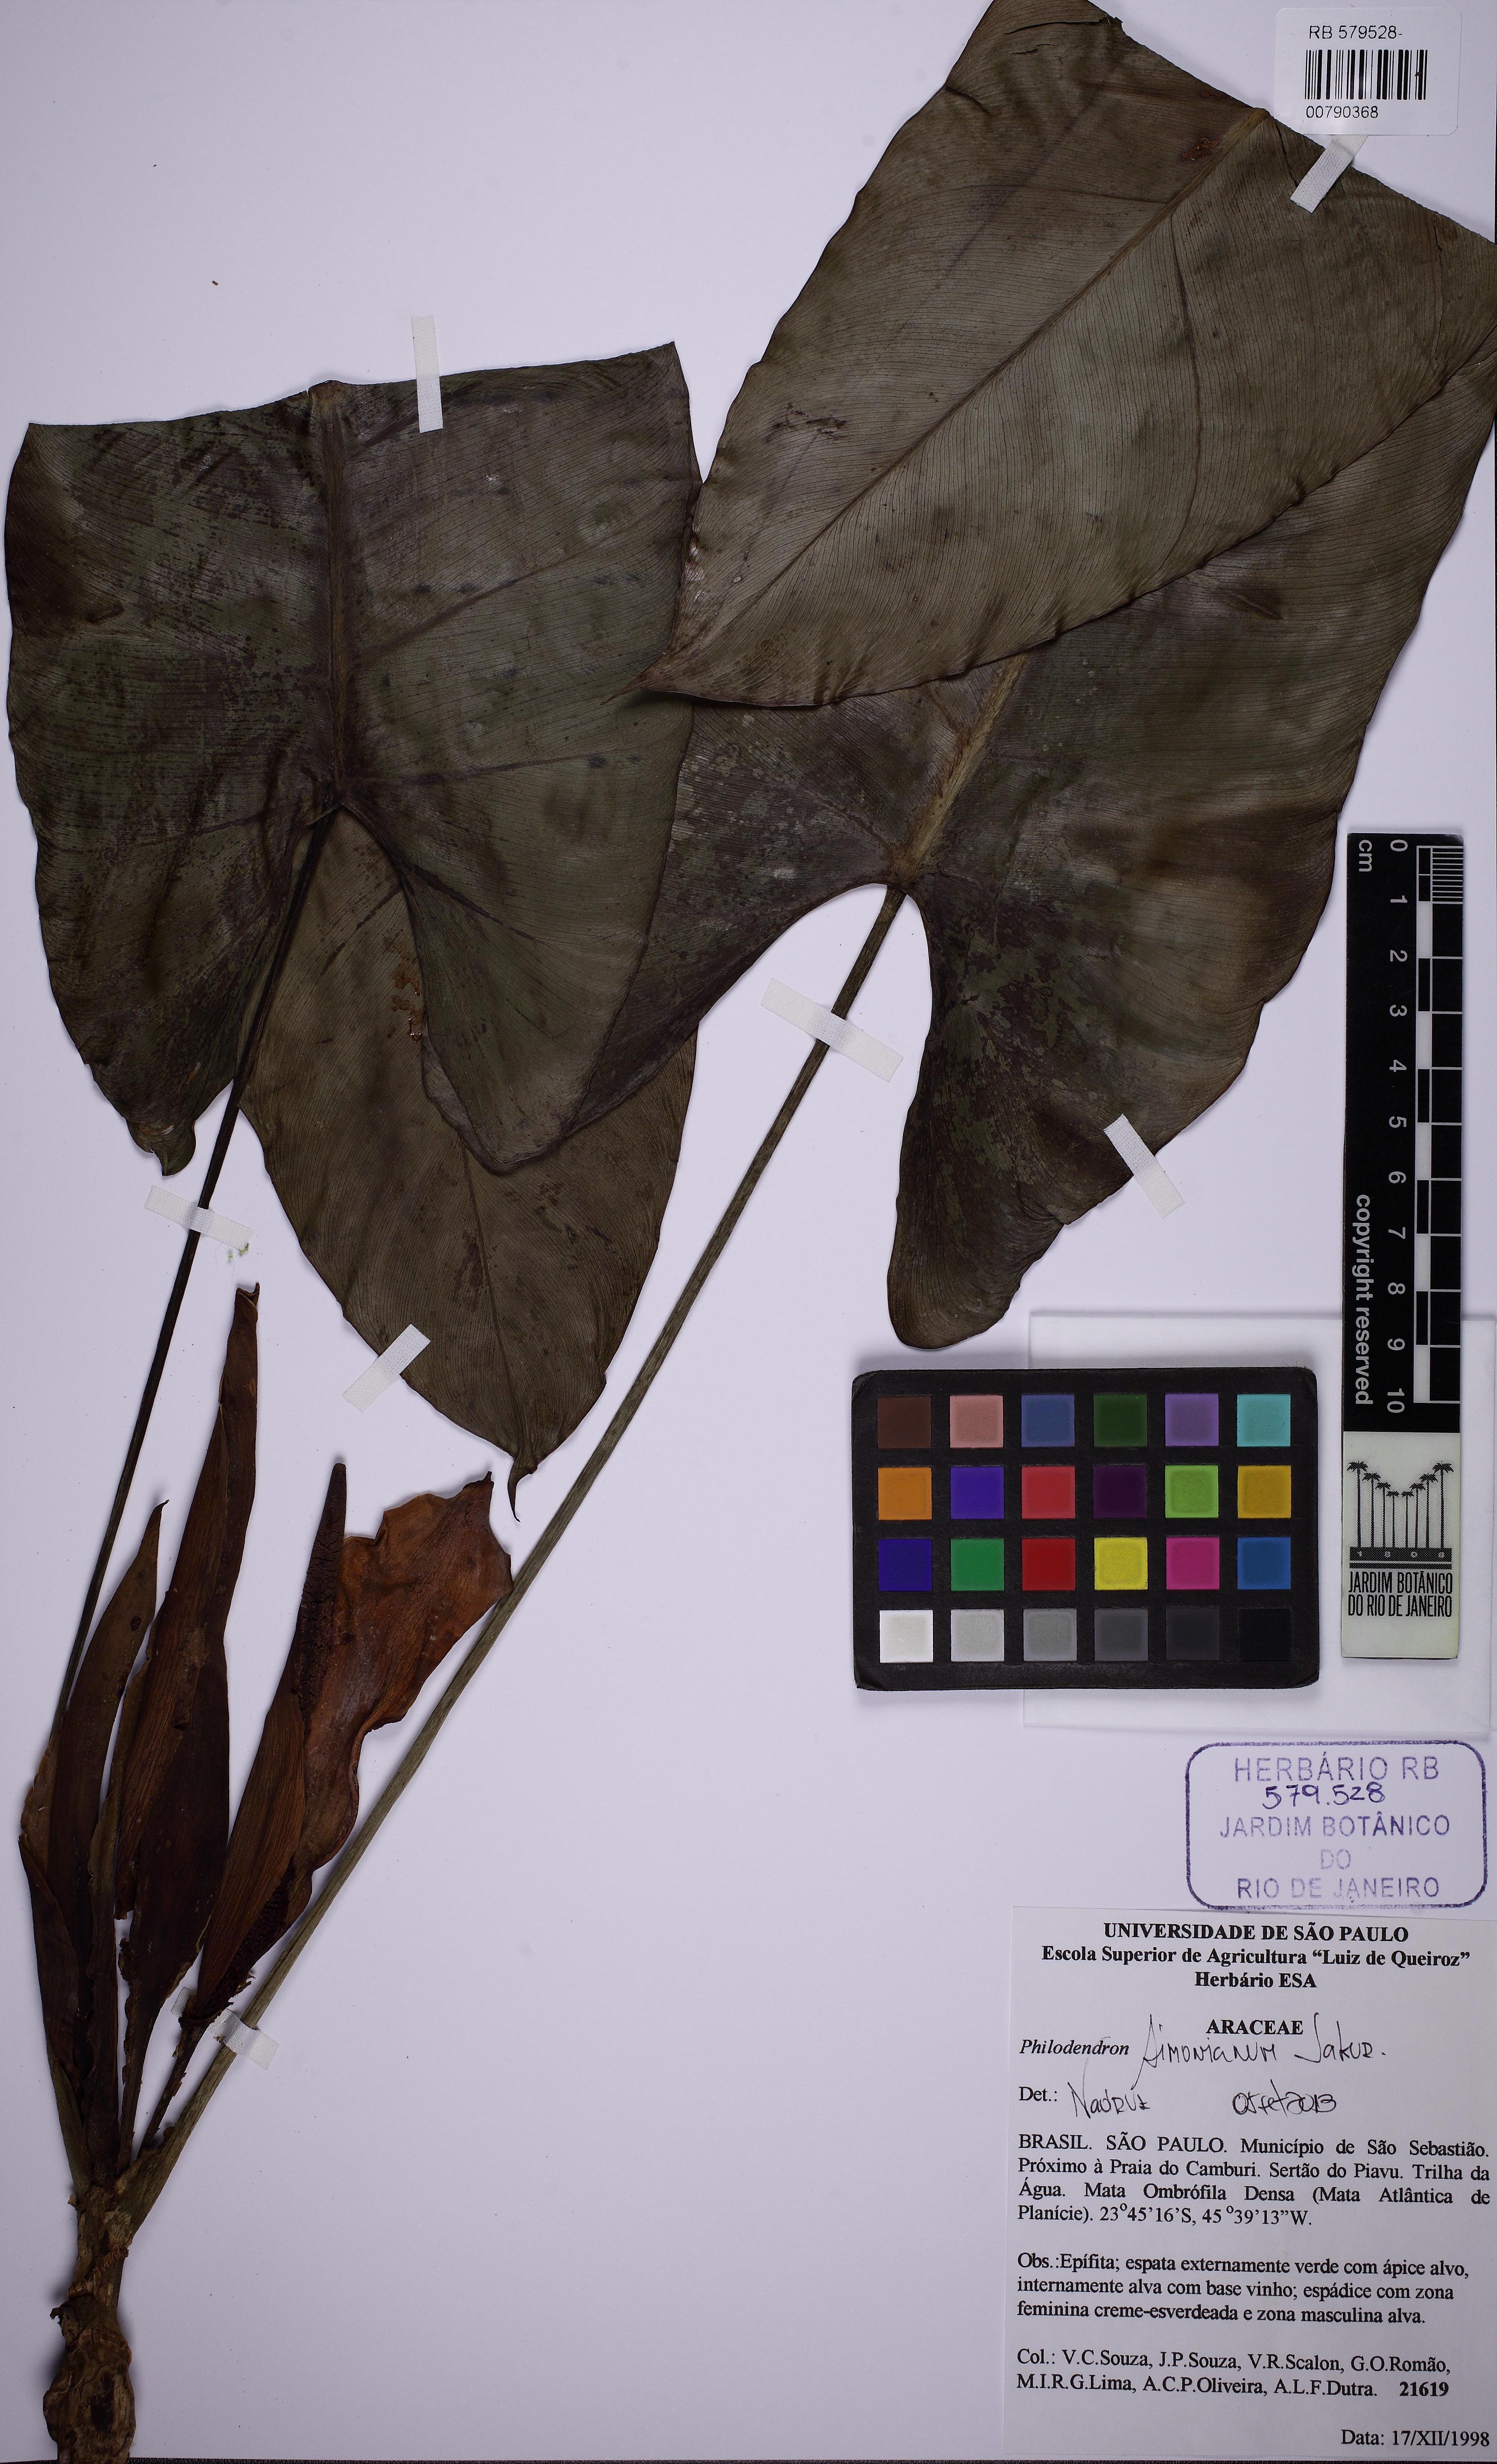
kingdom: Plantae
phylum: Tracheophyta
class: Liliopsida
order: Alismatales
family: Araceae
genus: Philodendron
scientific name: Philodendron simonianum
